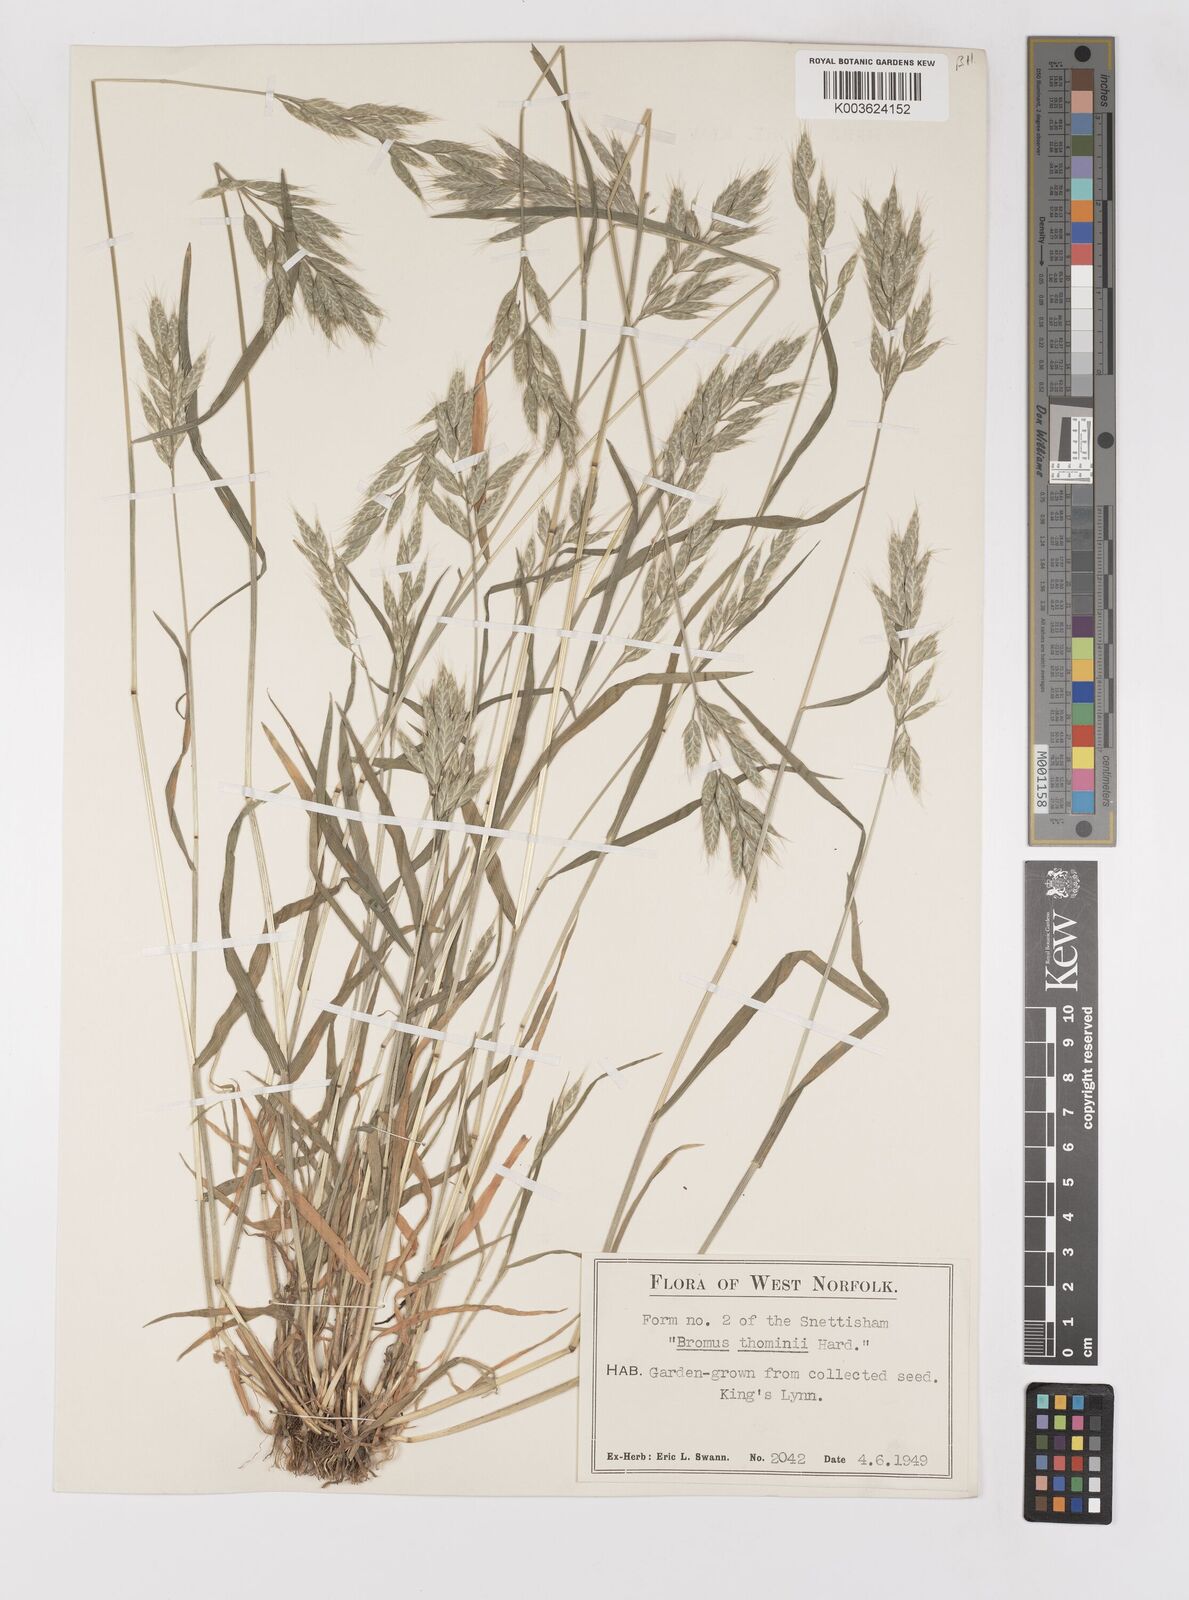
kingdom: Plantae
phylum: Tracheophyta
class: Liliopsida
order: Poales
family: Poaceae
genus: Bromus
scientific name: Bromus hordeaceus
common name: Soft brome
